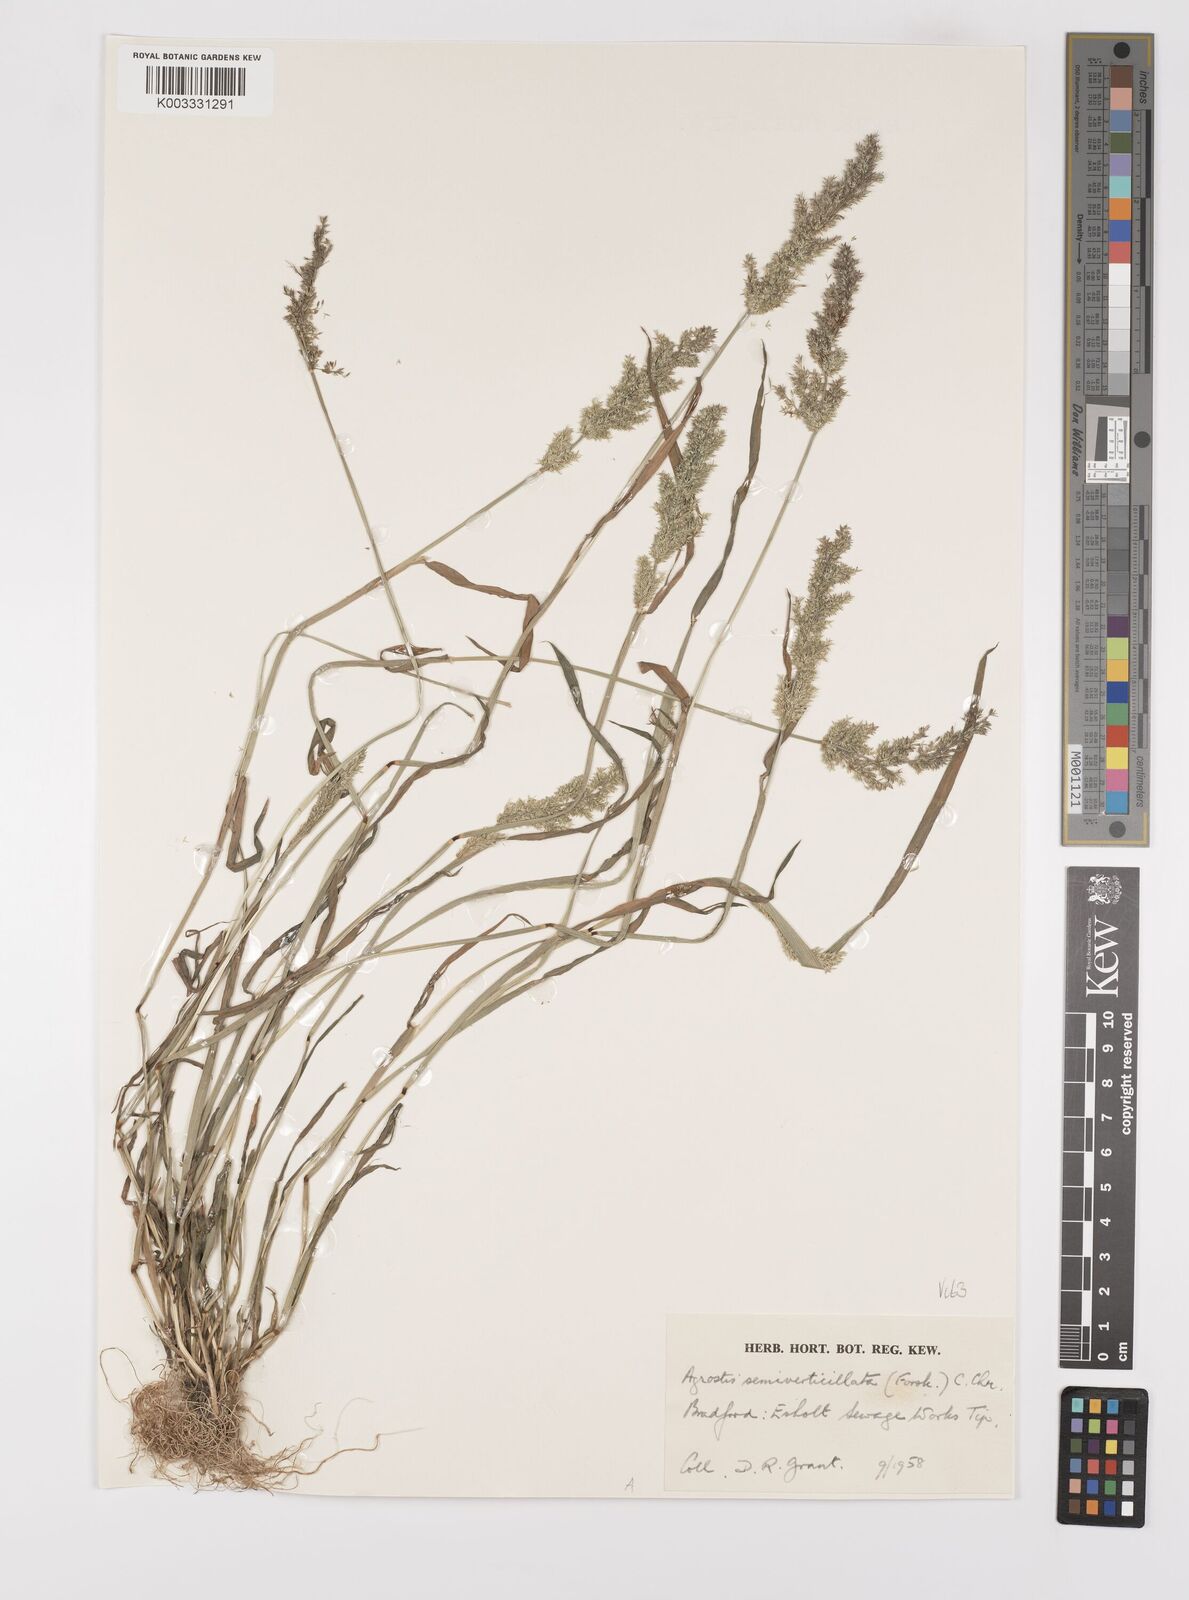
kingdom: Plantae
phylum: Tracheophyta
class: Liliopsida
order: Poales
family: Poaceae
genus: Polypogon
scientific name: Polypogon viridis
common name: Water bent
